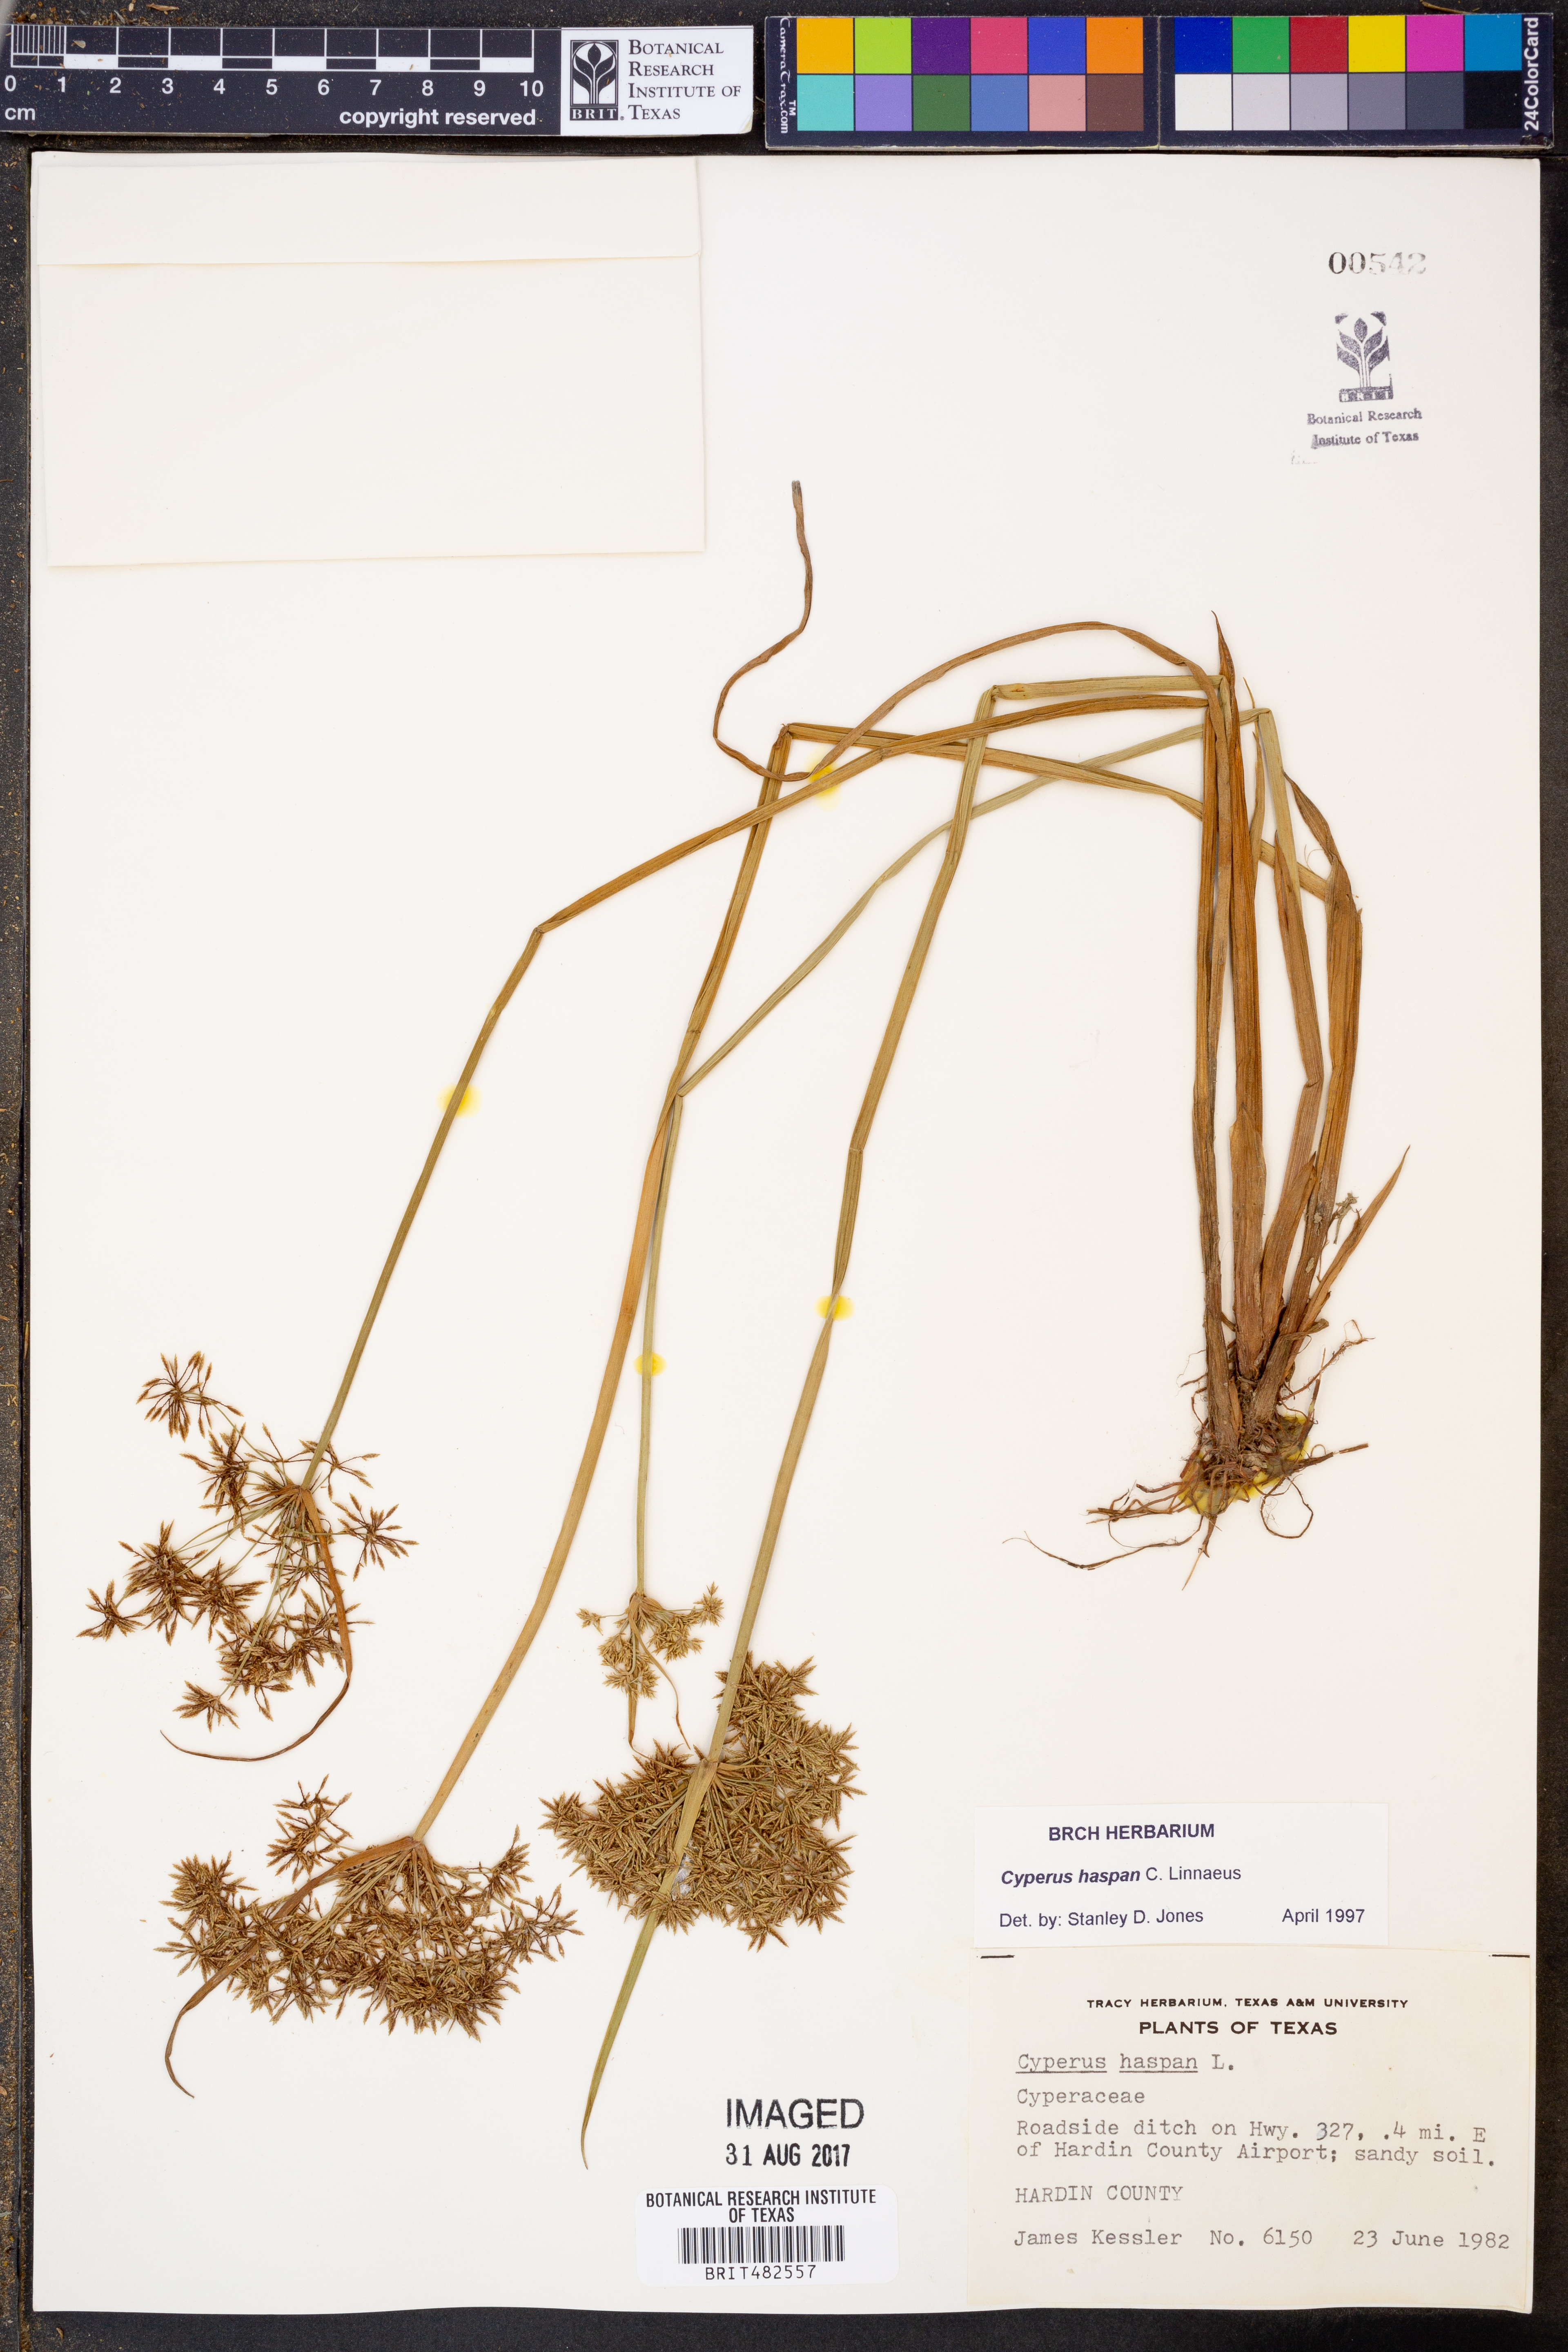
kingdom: Plantae
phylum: Tracheophyta
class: Liliopsida
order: Poales
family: Cyperaceae
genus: Cyperus
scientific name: Cyperus haspan
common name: Haspan flatsedge
